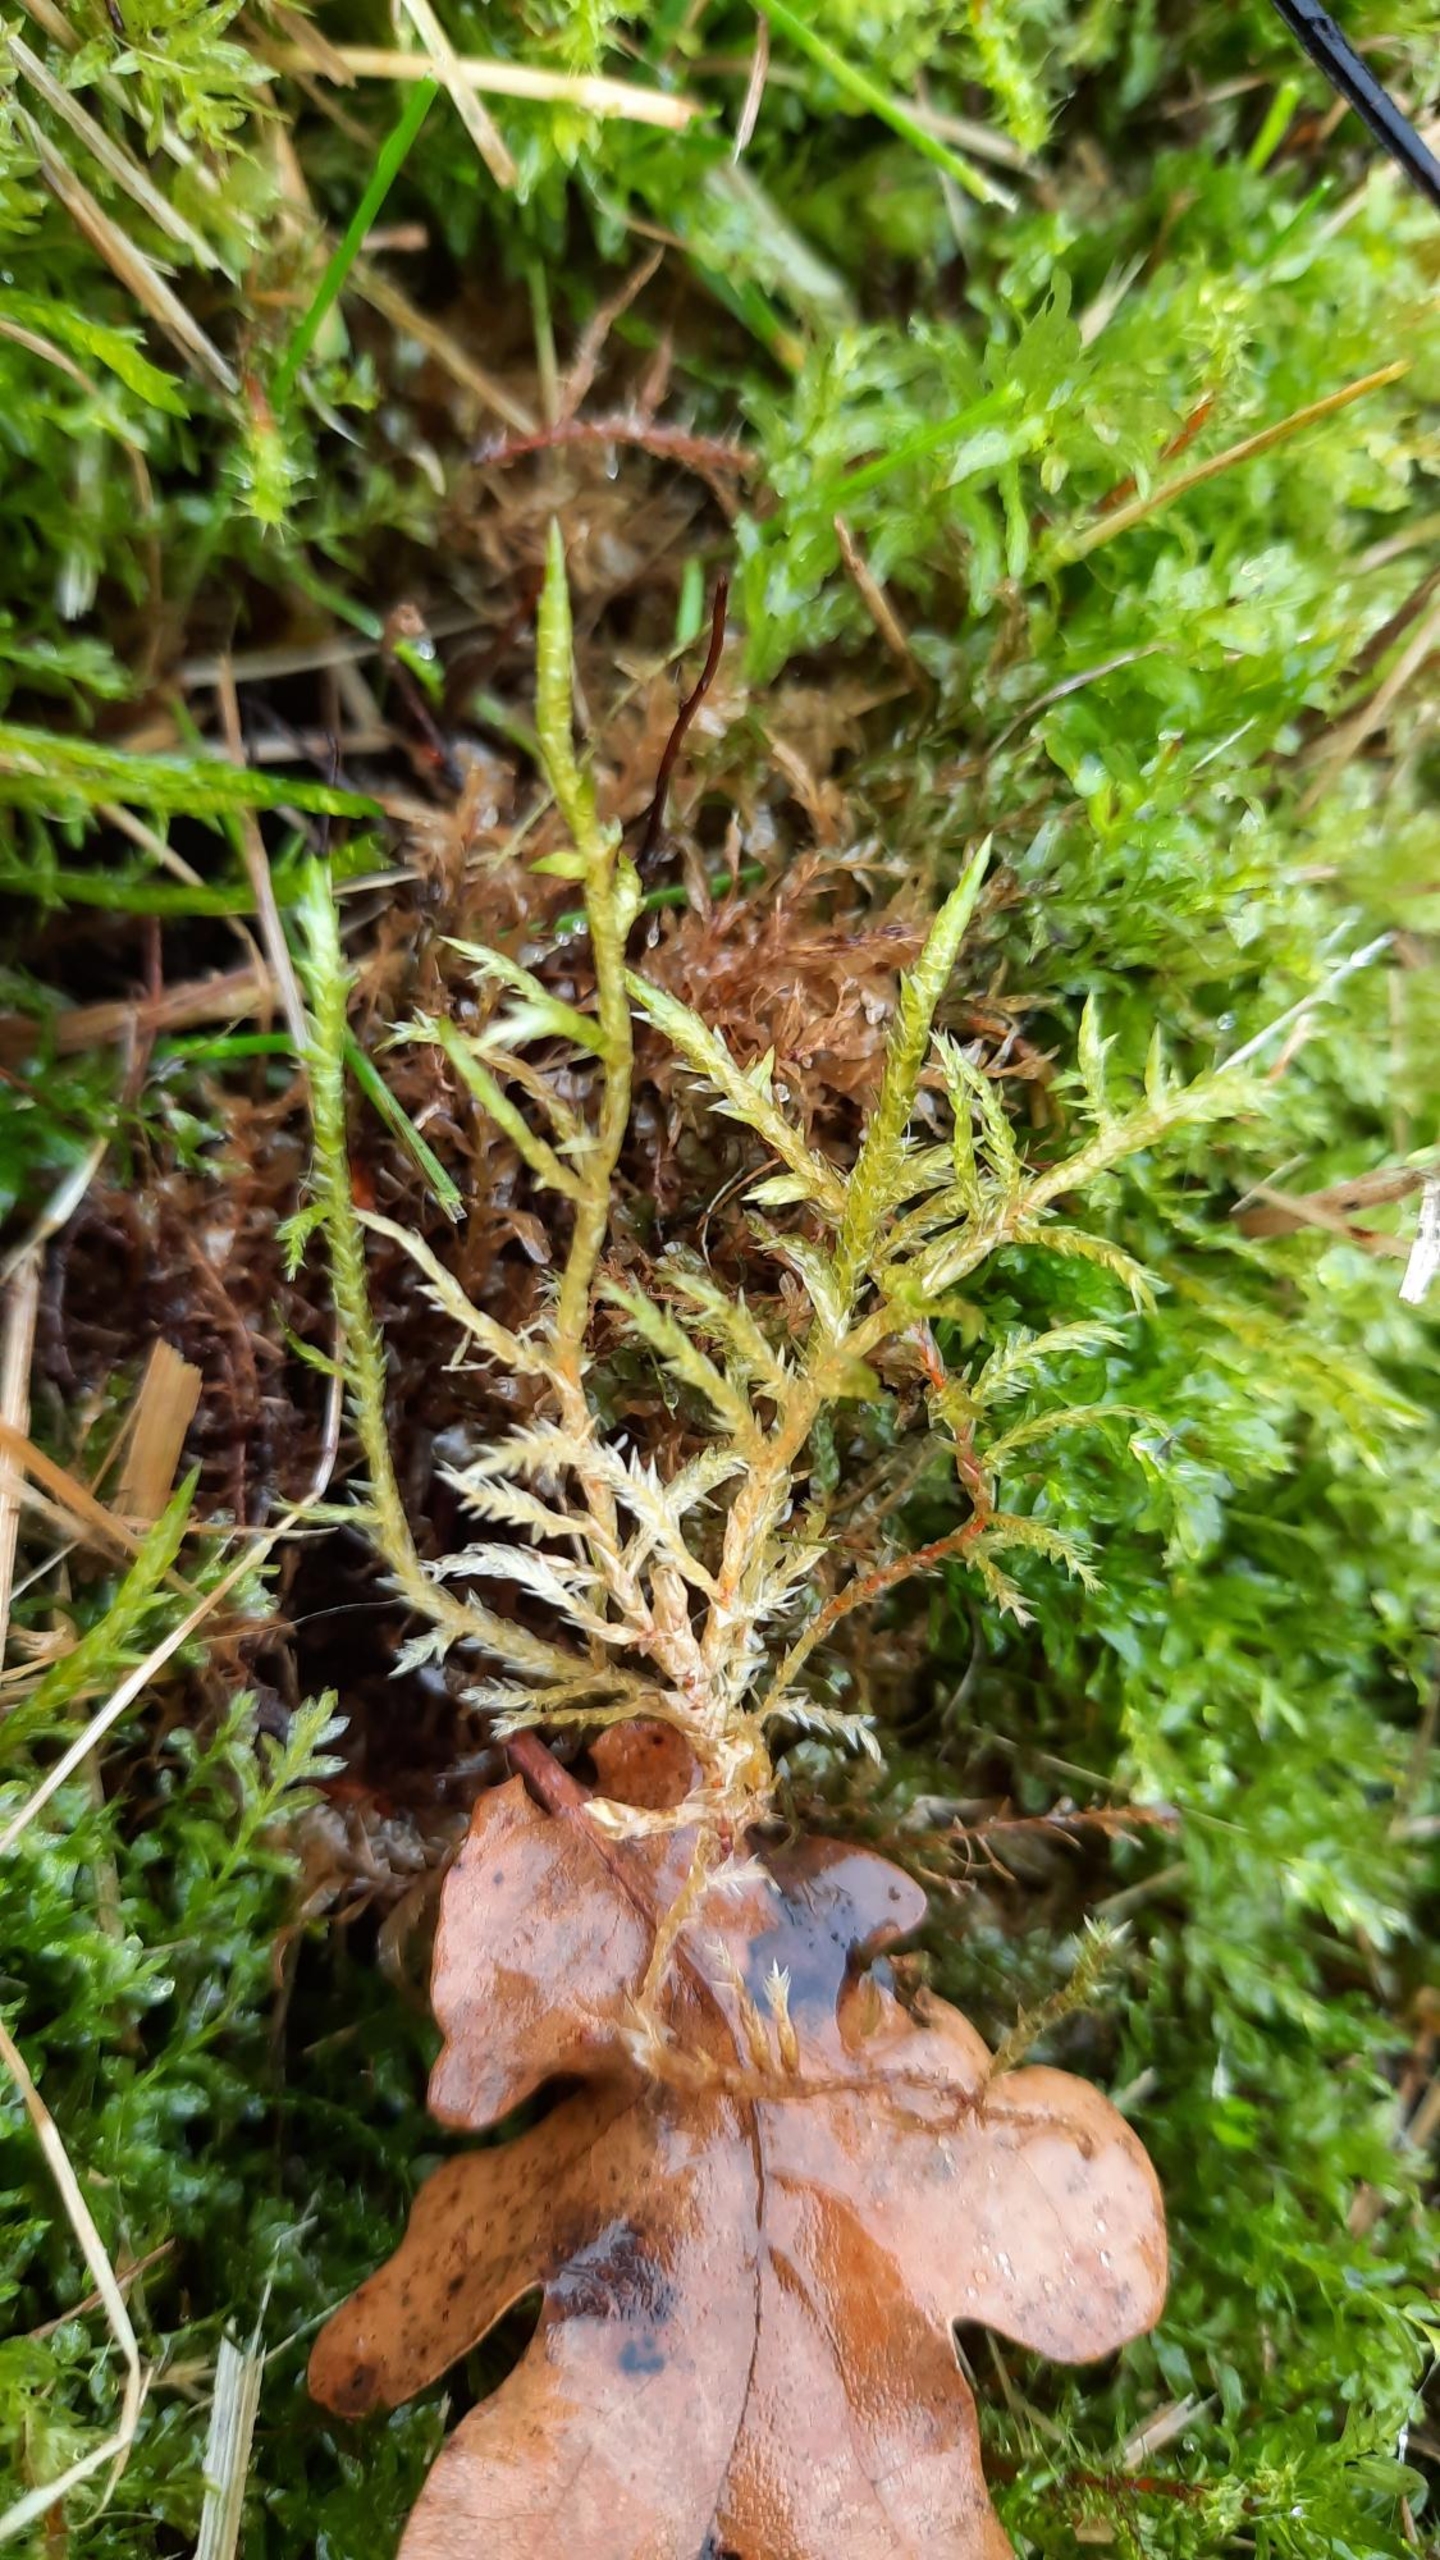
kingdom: Plantae
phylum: Bryophyta
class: Bryopsida
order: Hypnales
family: Pylaisiaceae
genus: Calliergonella
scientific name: Calliergonella cuspidata
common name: Spids spydmos
